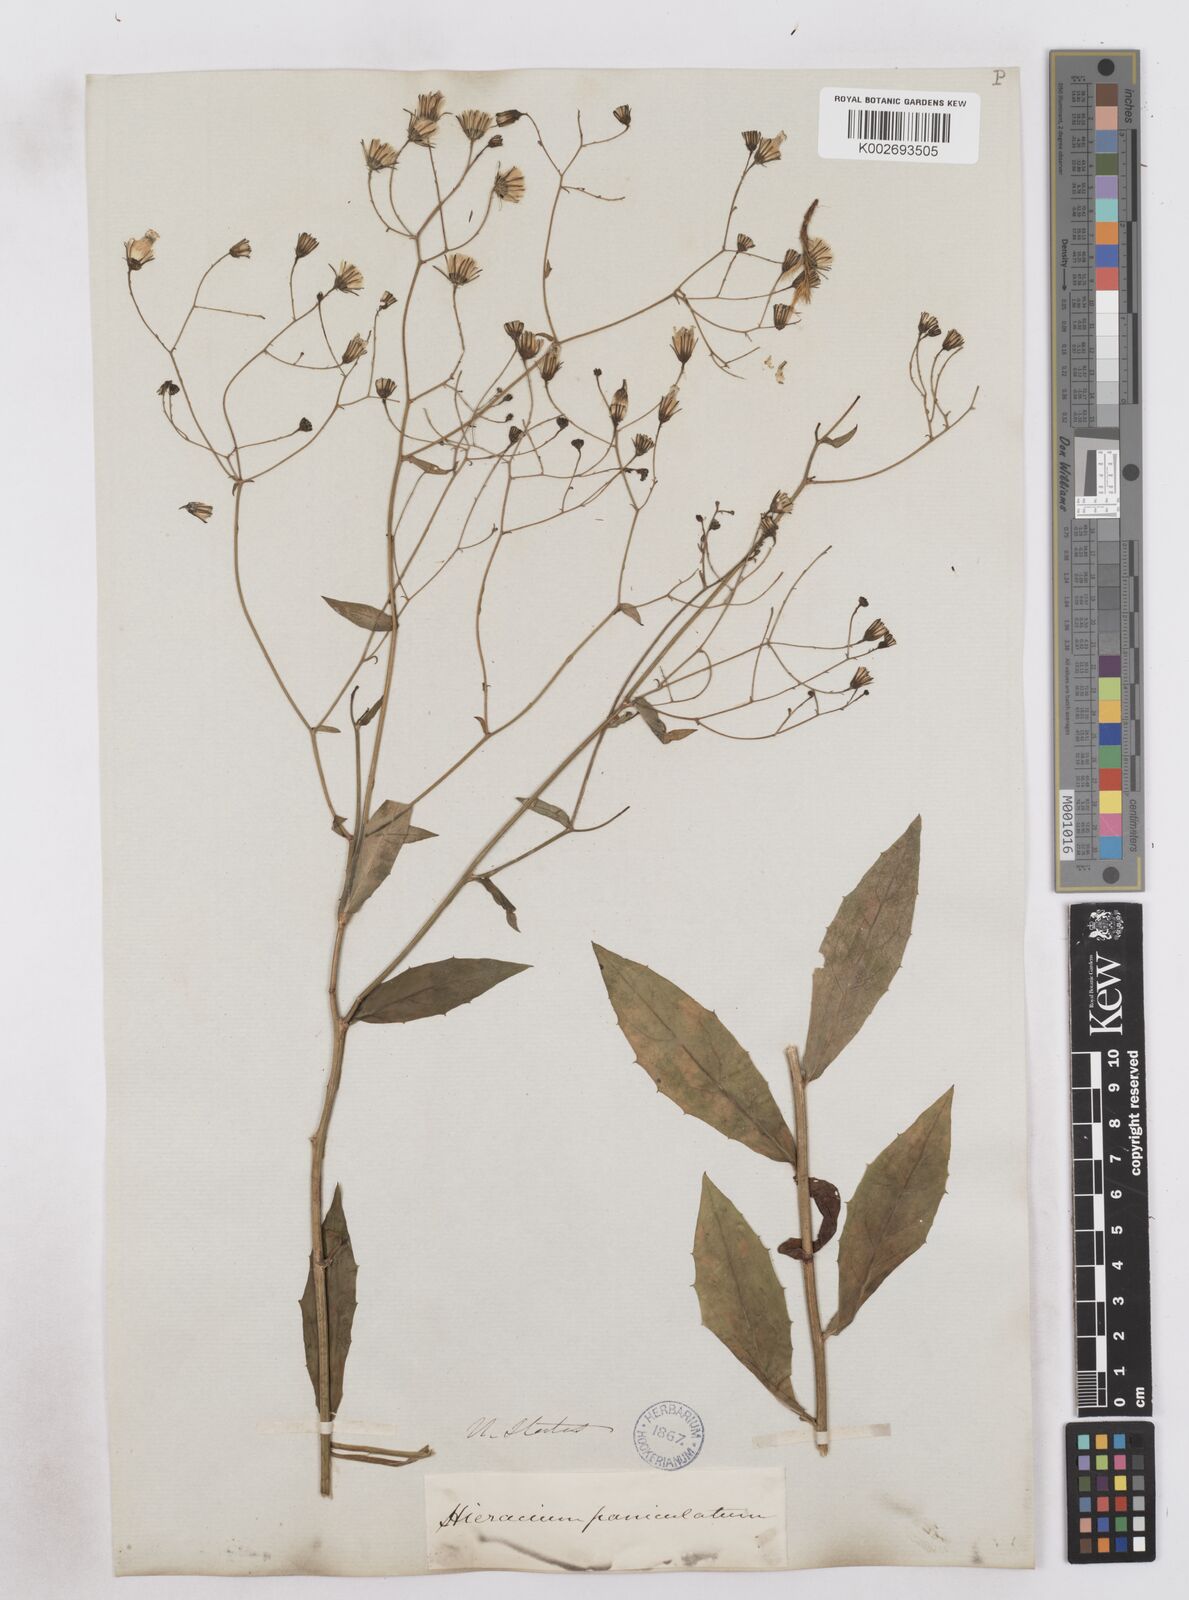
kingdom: Plantae
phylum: Tracheophyta
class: Magnoliopsida
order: Asterales
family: Asteraceae
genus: Hieracium
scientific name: Hieracium paniculatum
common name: Allegheny hawkweed
